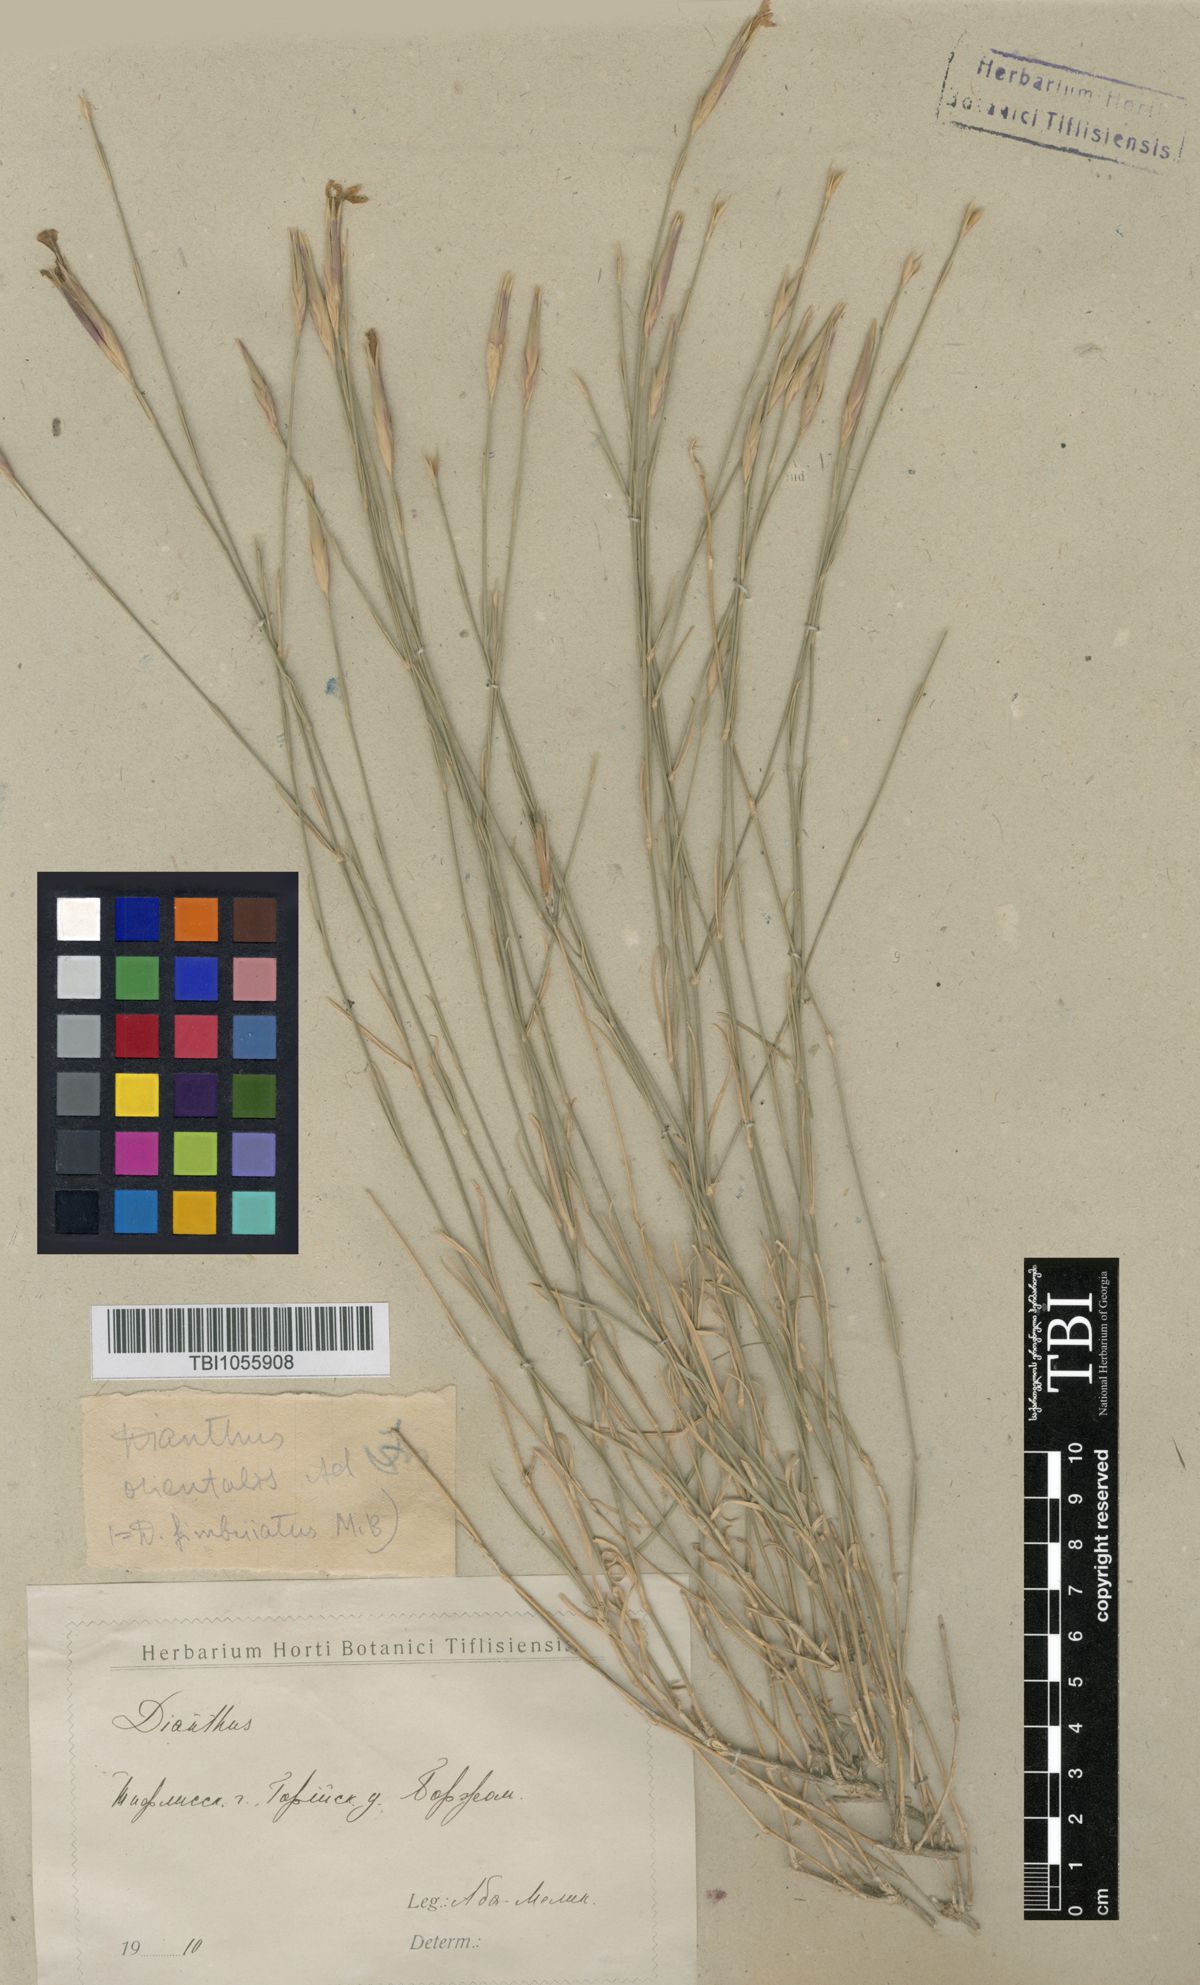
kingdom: Plantae
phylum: Tracheophyta
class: Magnoliopsida
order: Caryophyllales
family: Caryophyllaceae
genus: Dianthus
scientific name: Dianthus orientalis
